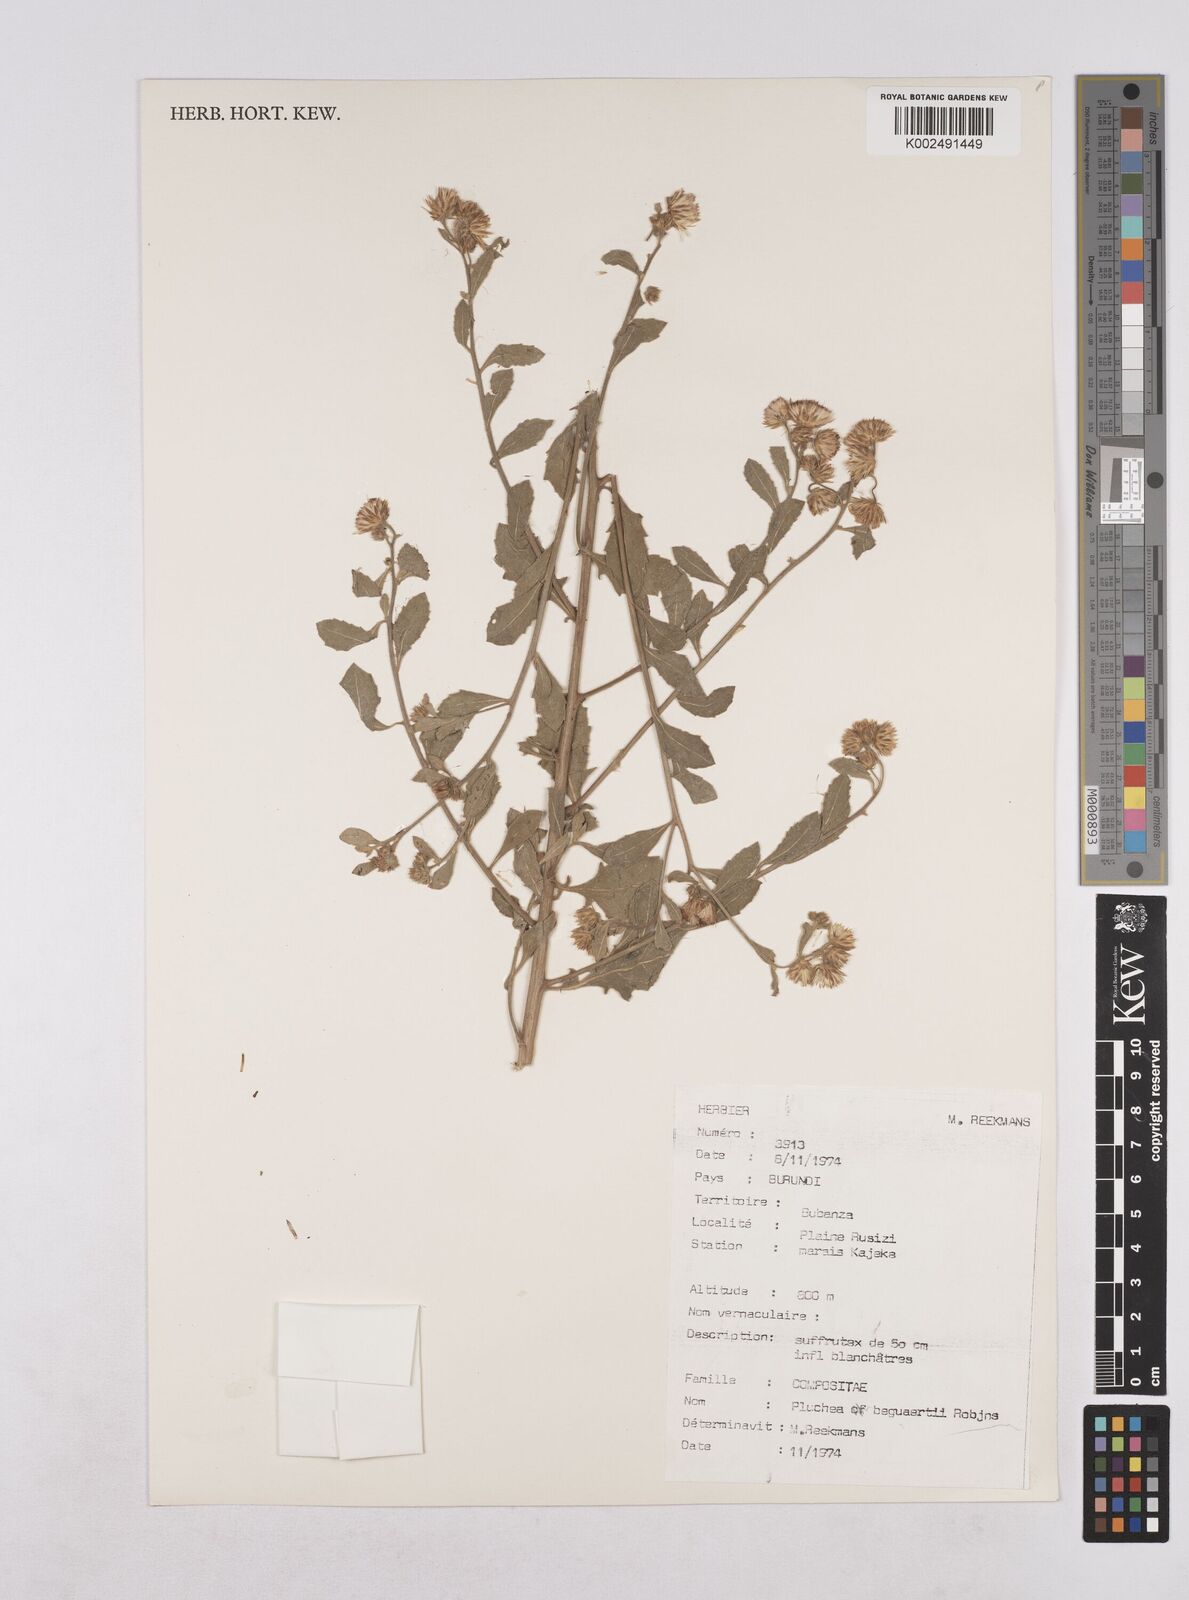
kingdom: Plantae
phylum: Tracheophyta
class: Magnoliopsida
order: Asterales
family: Asteraceae
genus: Pluchea
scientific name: Pluchea sordida
